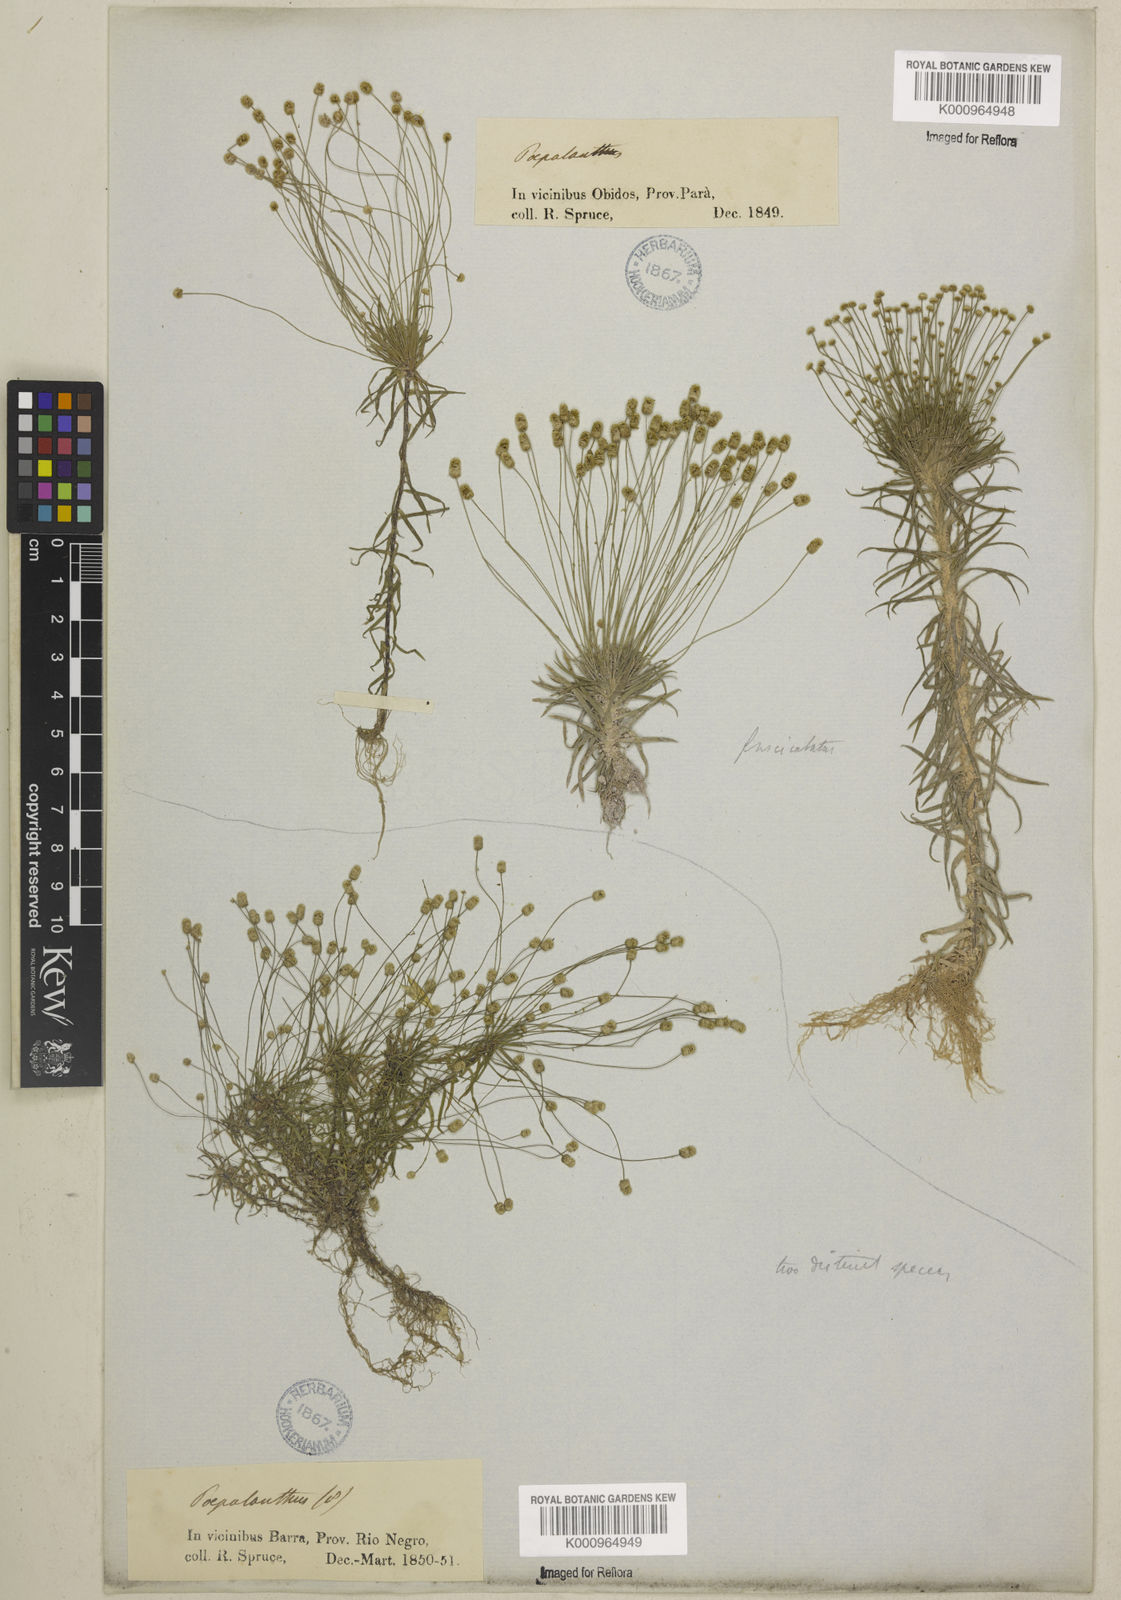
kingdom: Plantae
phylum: Tracheophyta
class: Liliopsida
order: Poales
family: Eriocaulaceae
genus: Paepalanthus
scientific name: Paepalanthus fasciculatus
